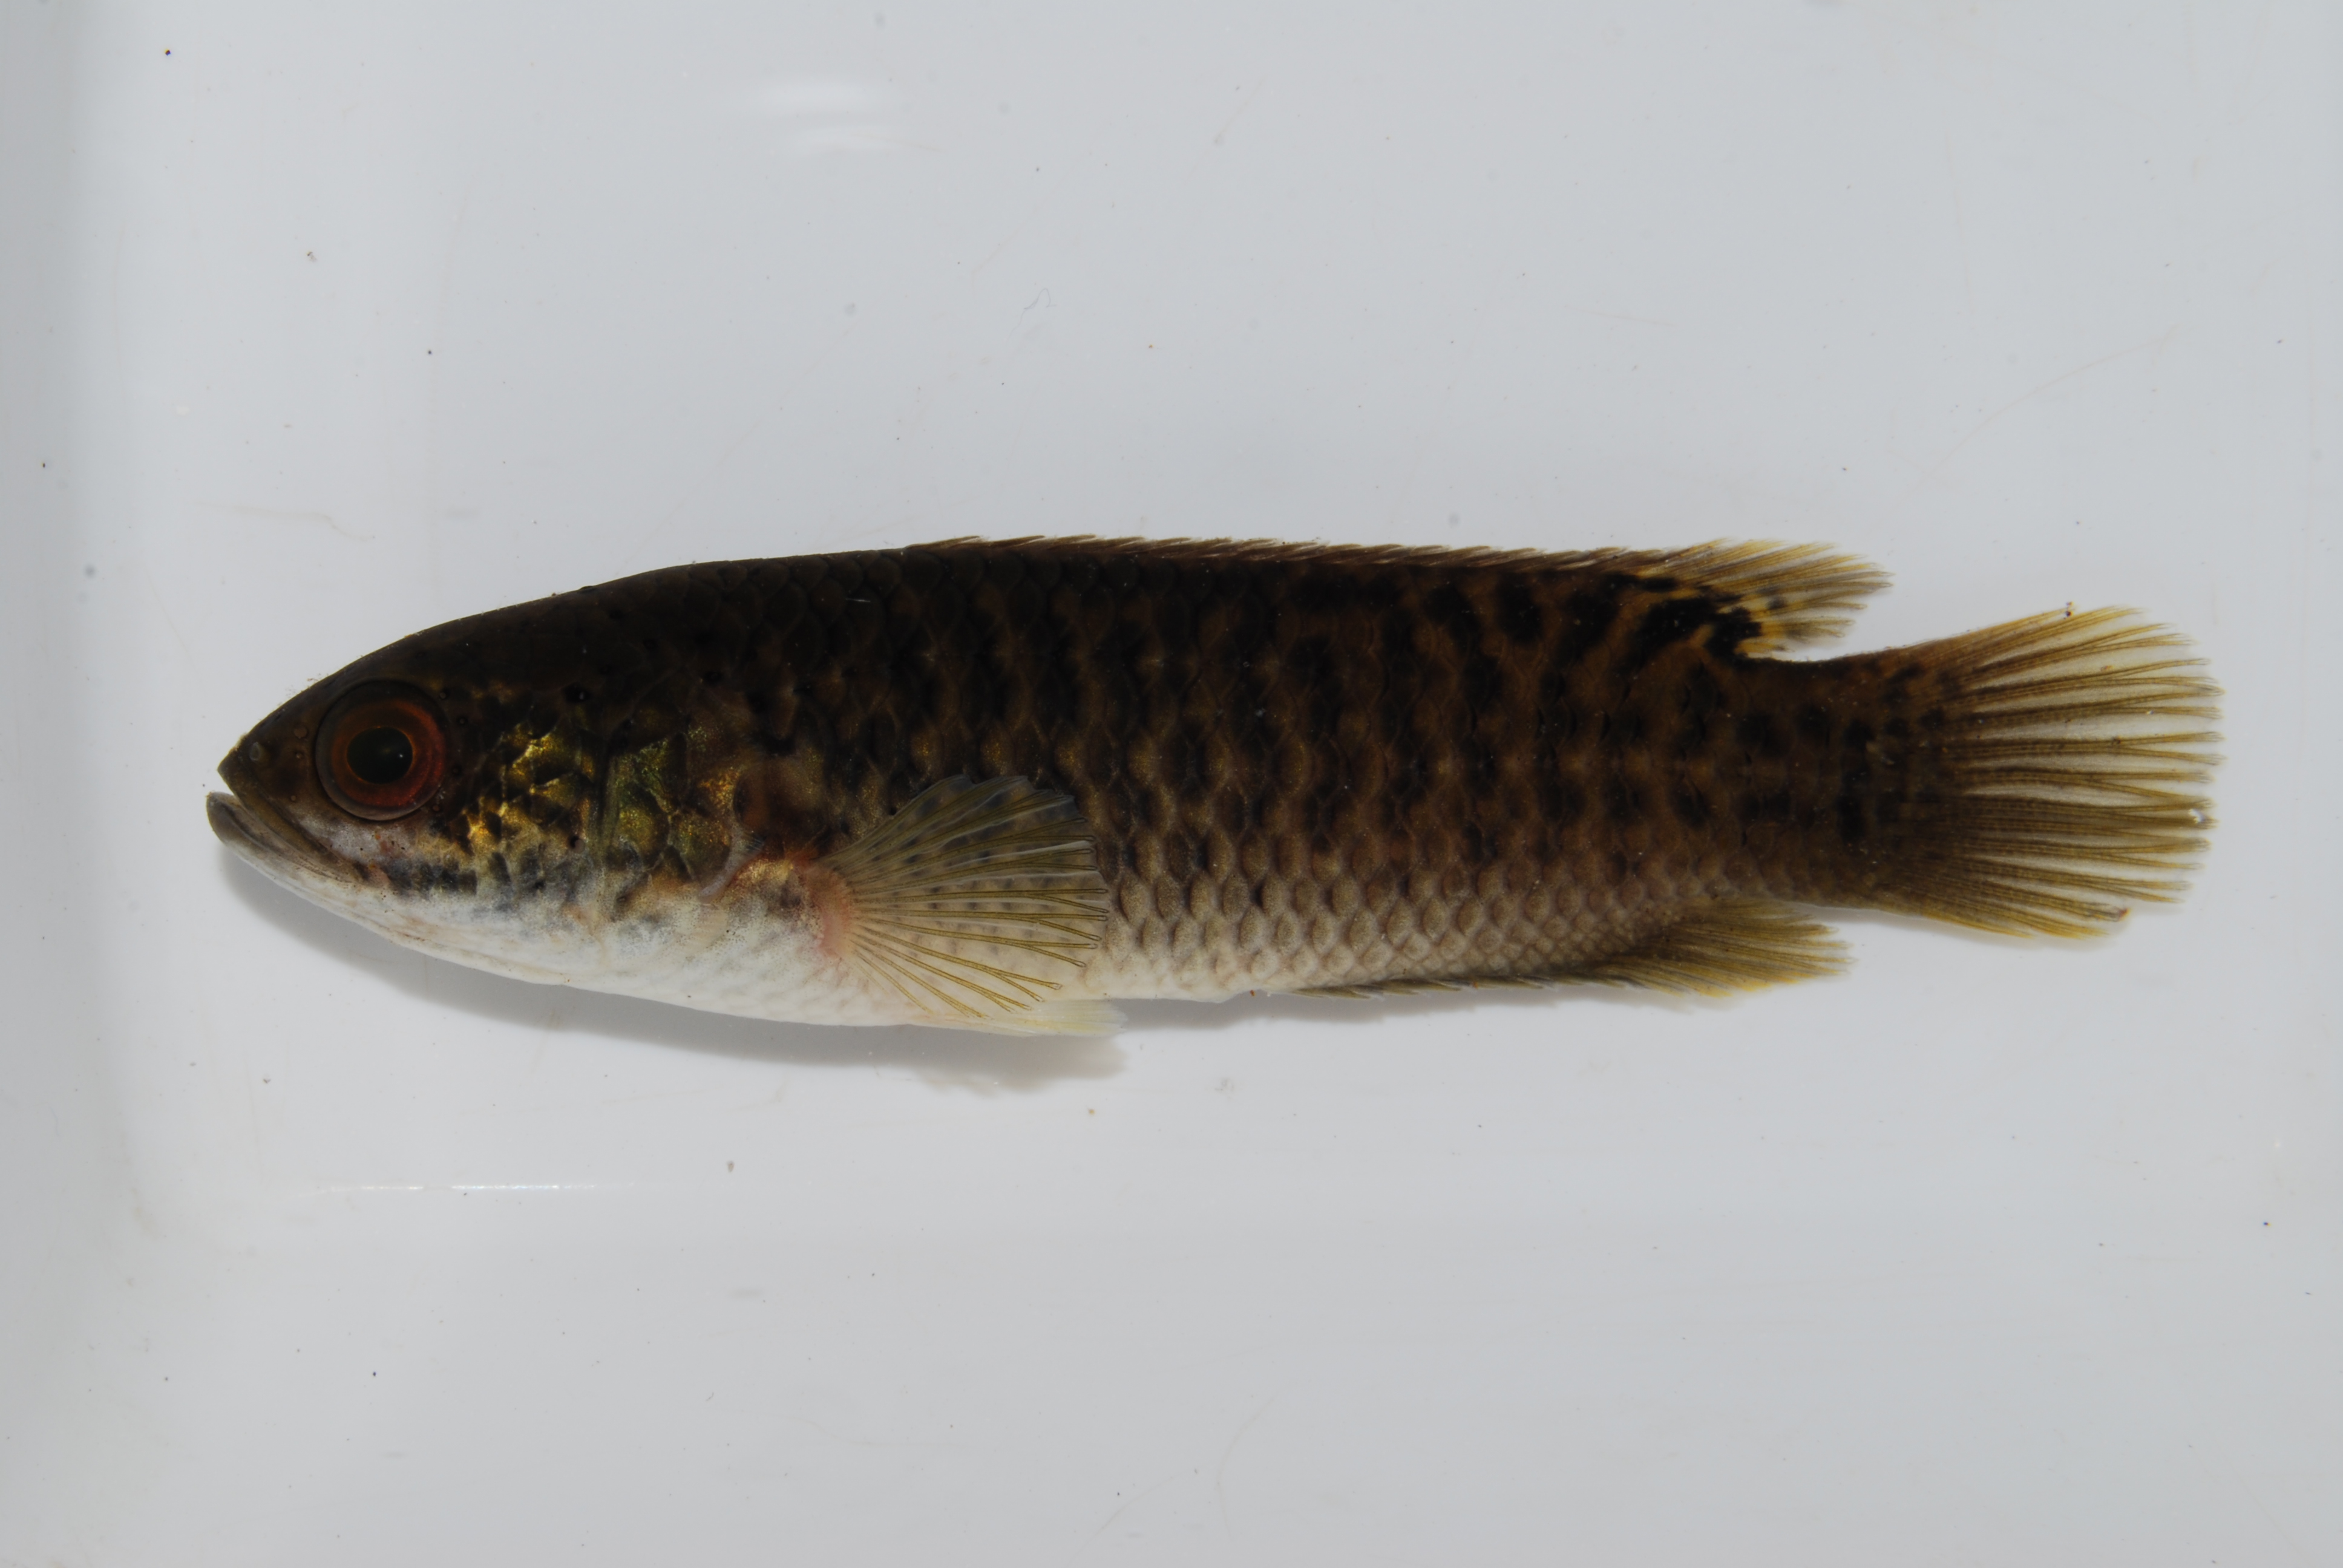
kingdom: Animalia
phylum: Chordata
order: Perciformes
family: Anabantidae
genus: Ctenopoma
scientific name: Ctenopoma multispine
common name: Manyspined climbing perch
